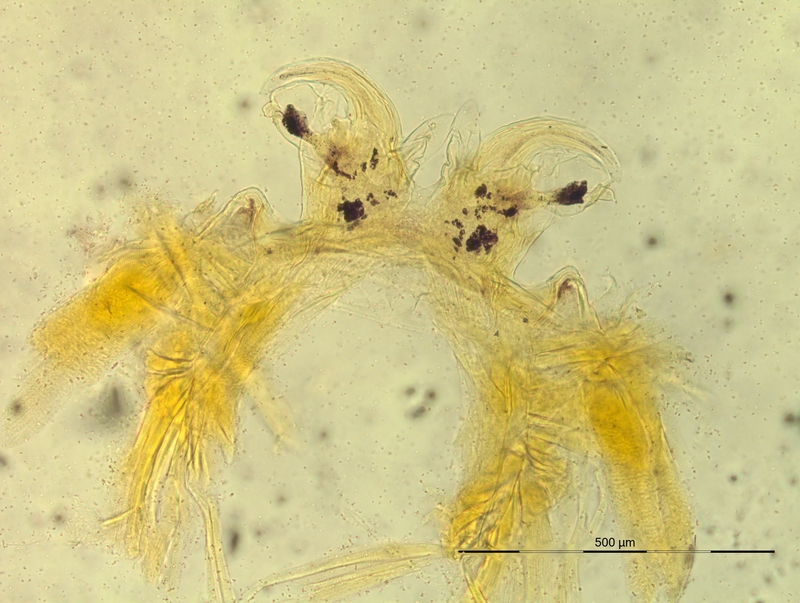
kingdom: Animalia
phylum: Arthropoda
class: Diplopoda
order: Chordeumatida
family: Craspedosomatidae
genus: Oroposoma
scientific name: Oroposoma granitivagum
